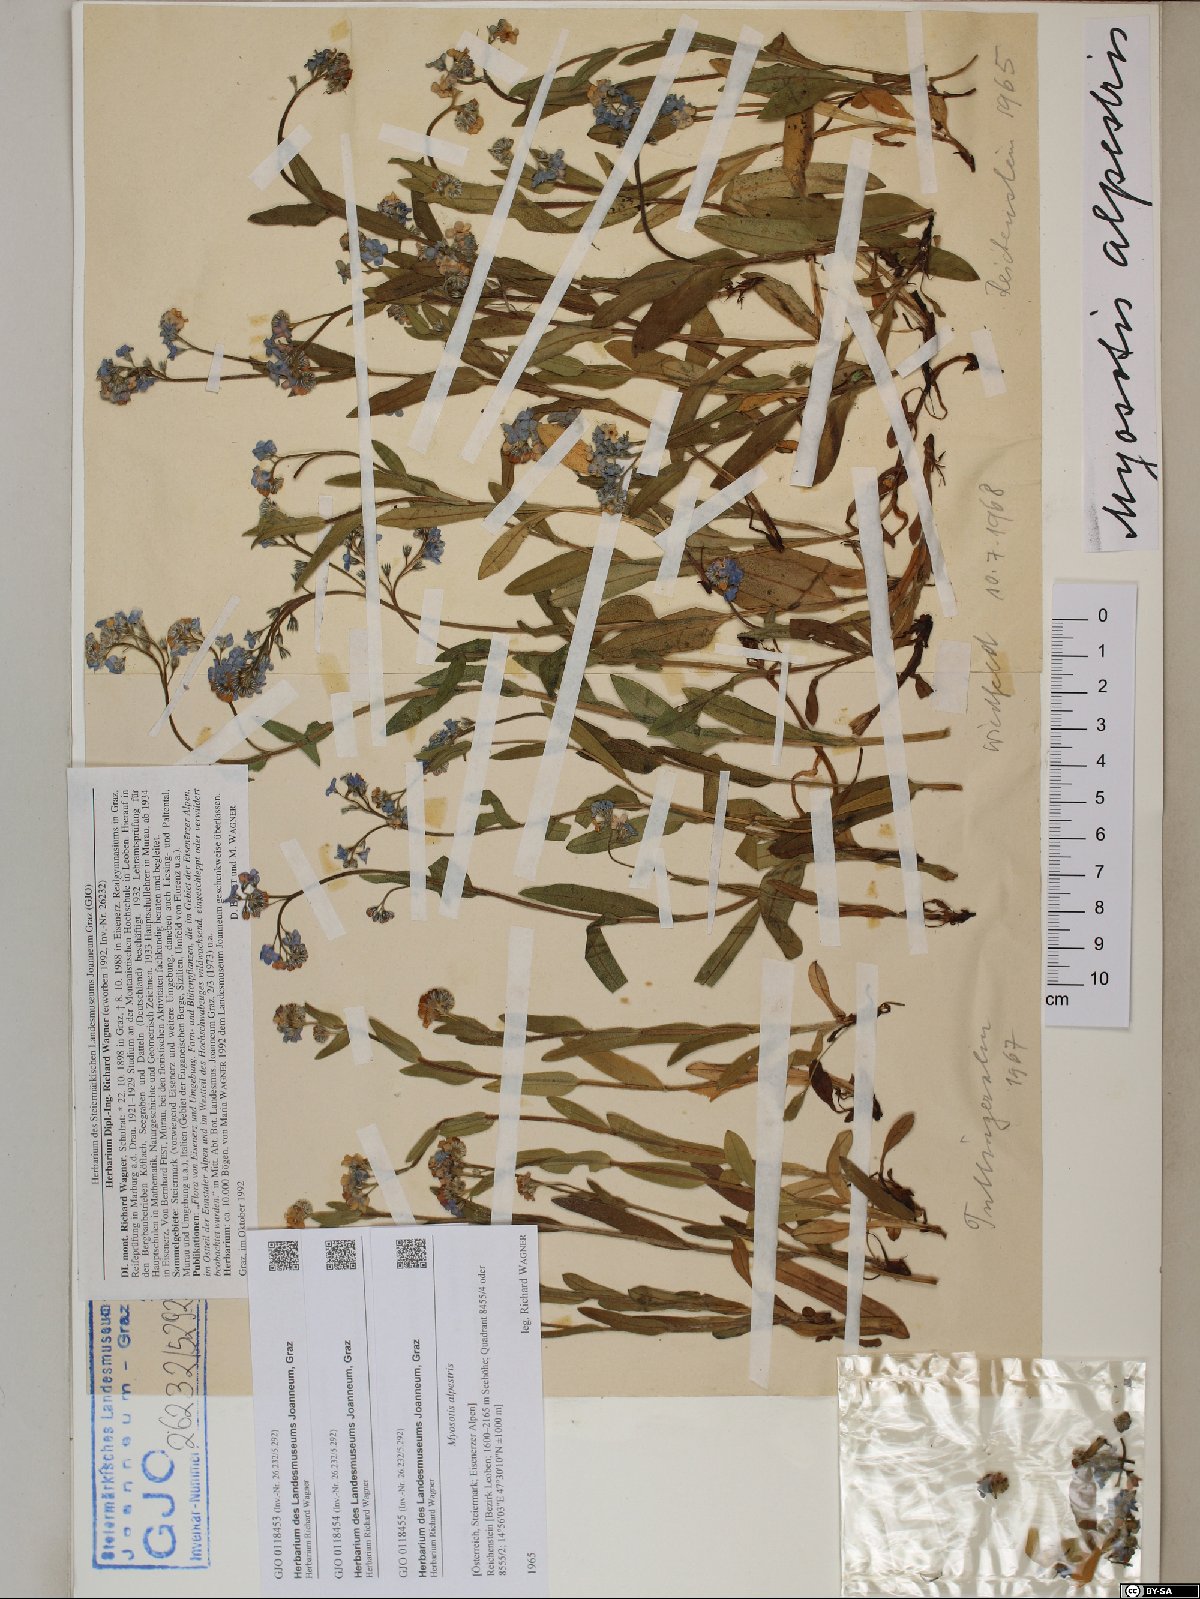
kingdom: Plantae
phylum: Tracheophyta
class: Magnoliopsida
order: Boraginales
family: Boraginaceae
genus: Myosotis
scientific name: Myosotis alpestris
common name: Alpine forget-me-not
